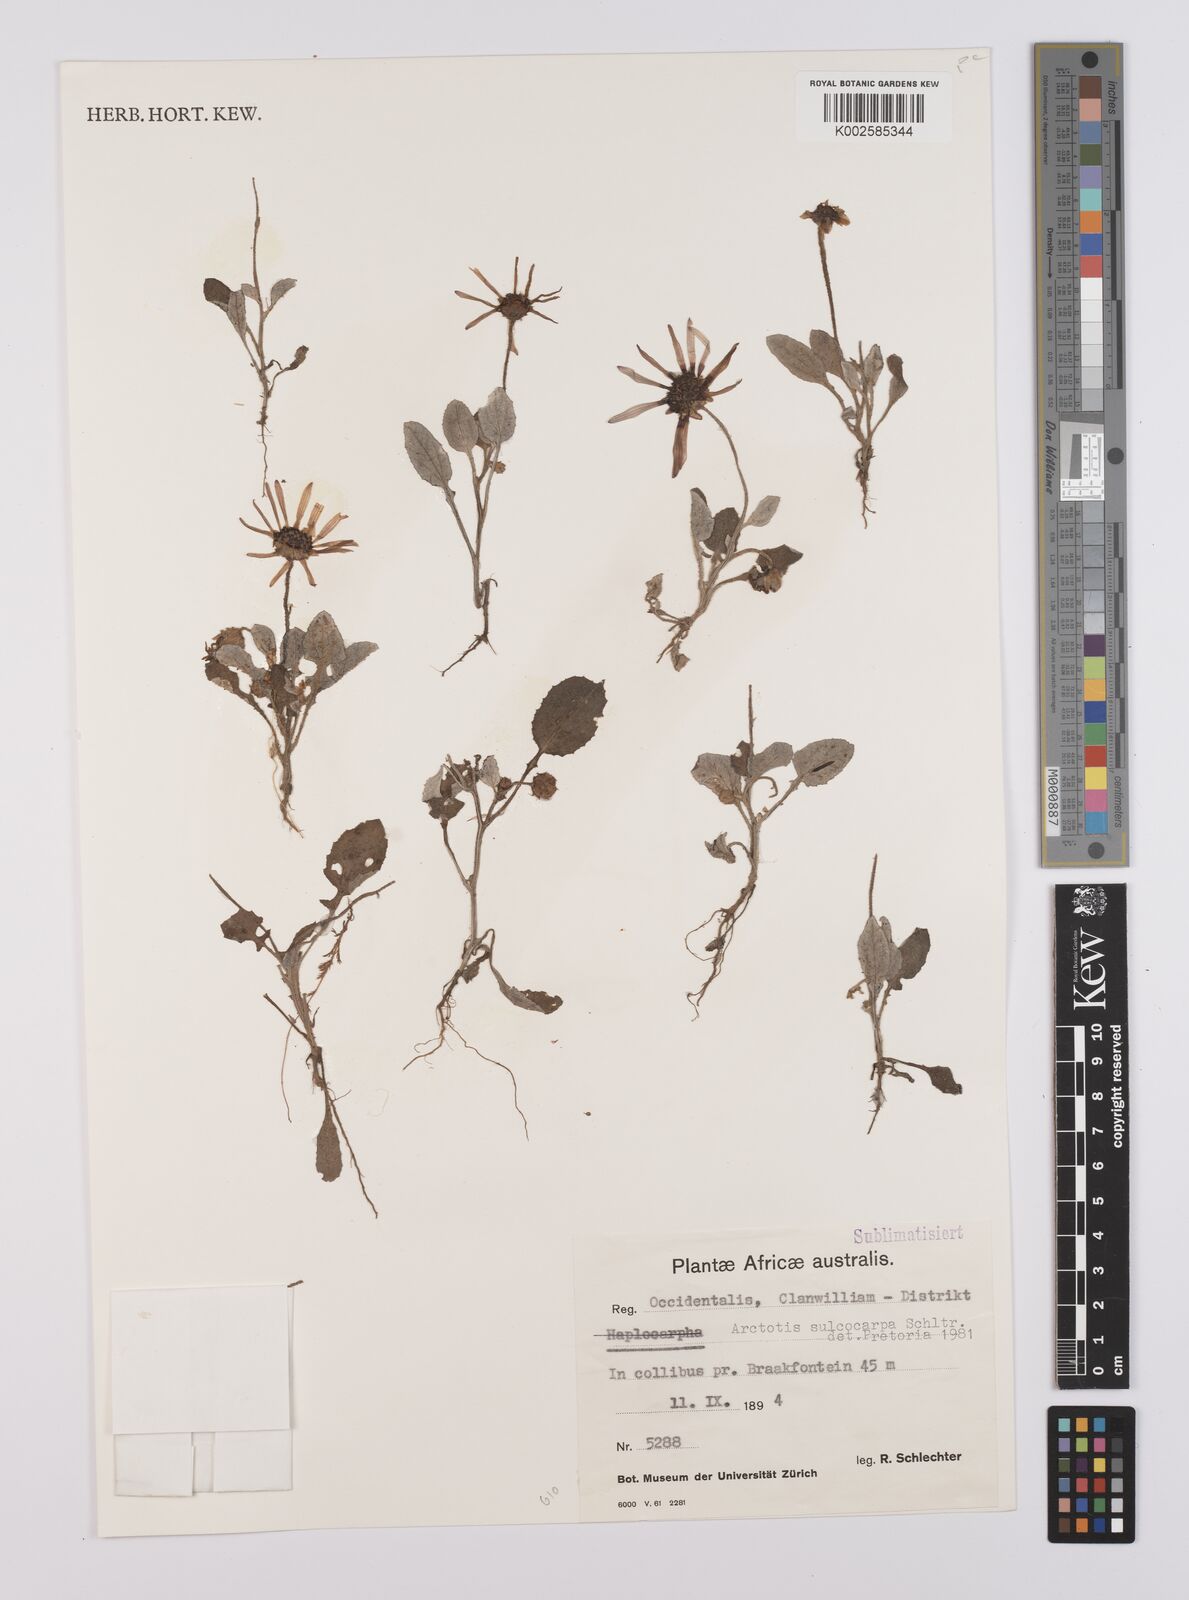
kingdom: Plantae
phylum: Tracheophyta
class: Magnoliopsida
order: Asterales
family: Asteraceae
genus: Arctotis
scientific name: Arctotis sulcocarpa
